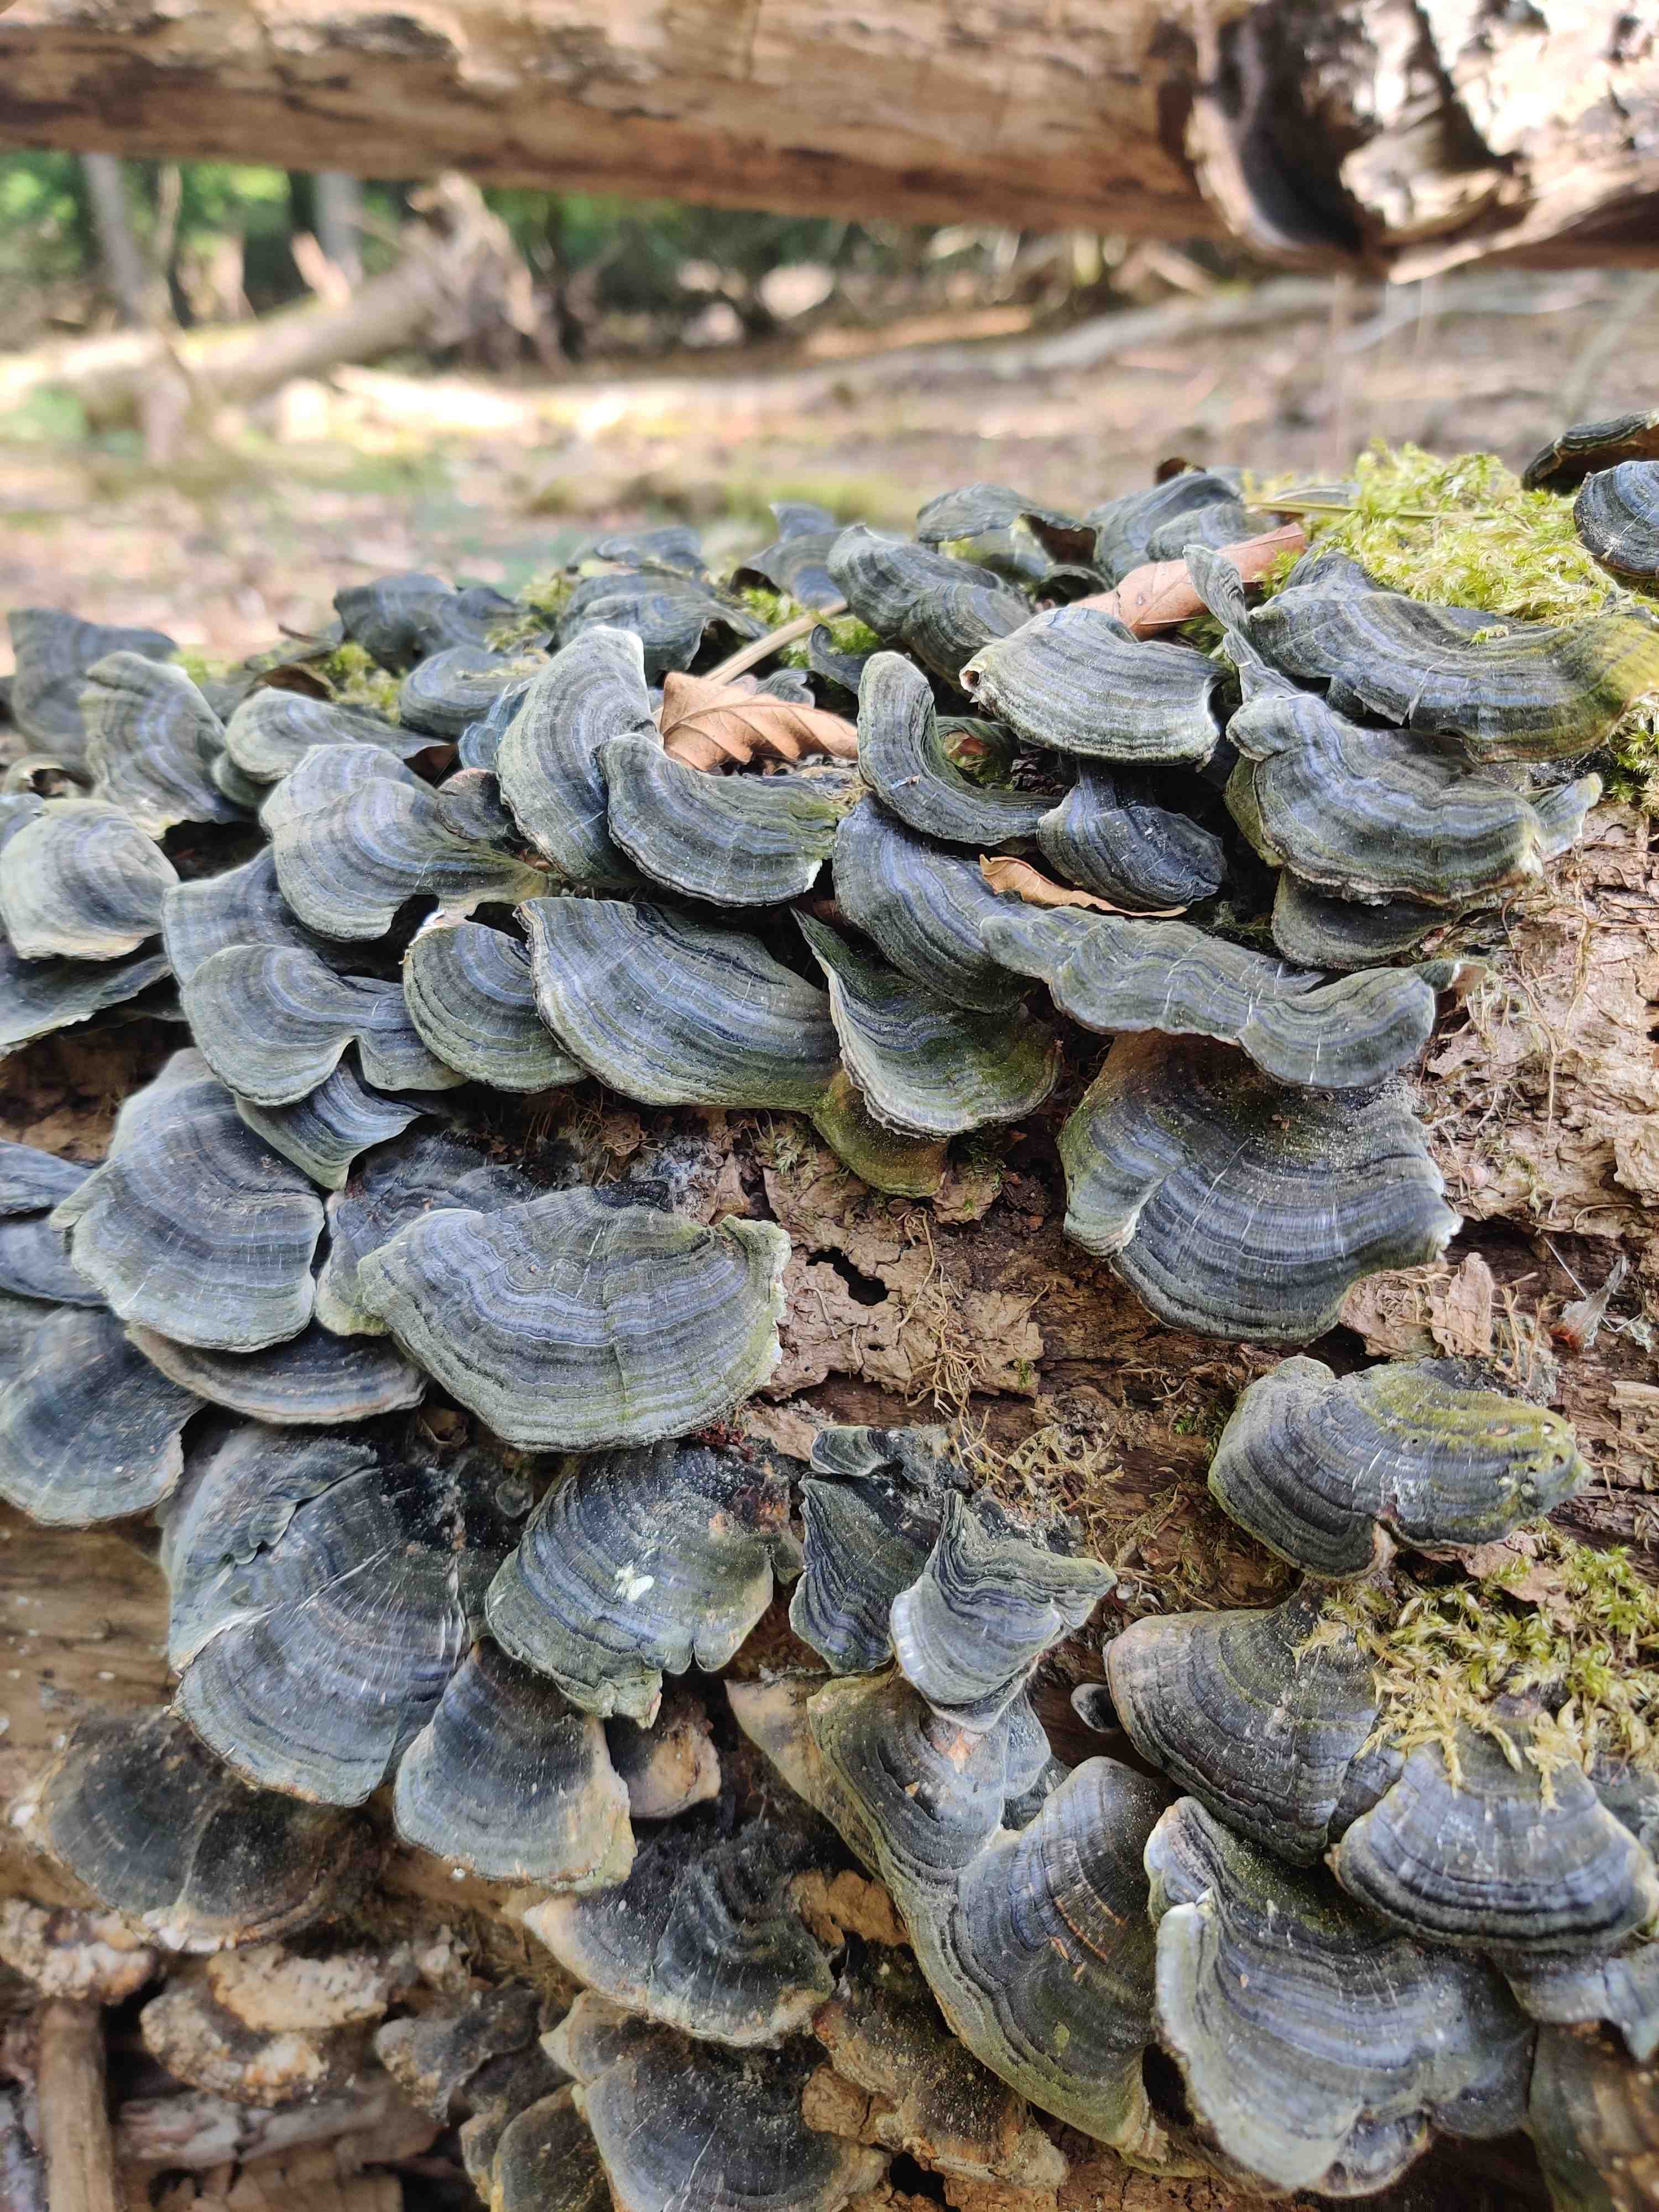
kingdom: Fungi
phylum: Basidiomycota
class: Agaricomycetes
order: Polyporales
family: Polyporaceae
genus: Trametes
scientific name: Trametes versicolor
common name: broget læderporesvamp
